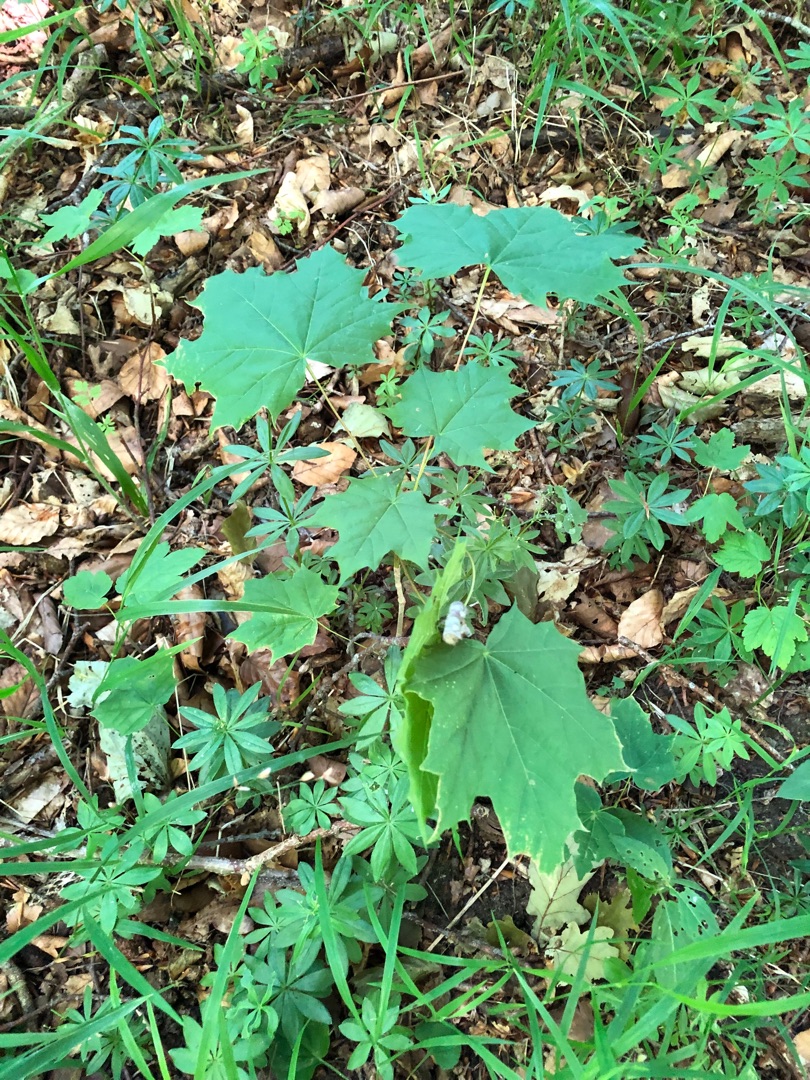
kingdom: Plantae
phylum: Tracheophyta
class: Magnoliopsida
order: Sapindales
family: Sapindaceae
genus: Acer
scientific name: Acer platanoides
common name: Spids-løn
